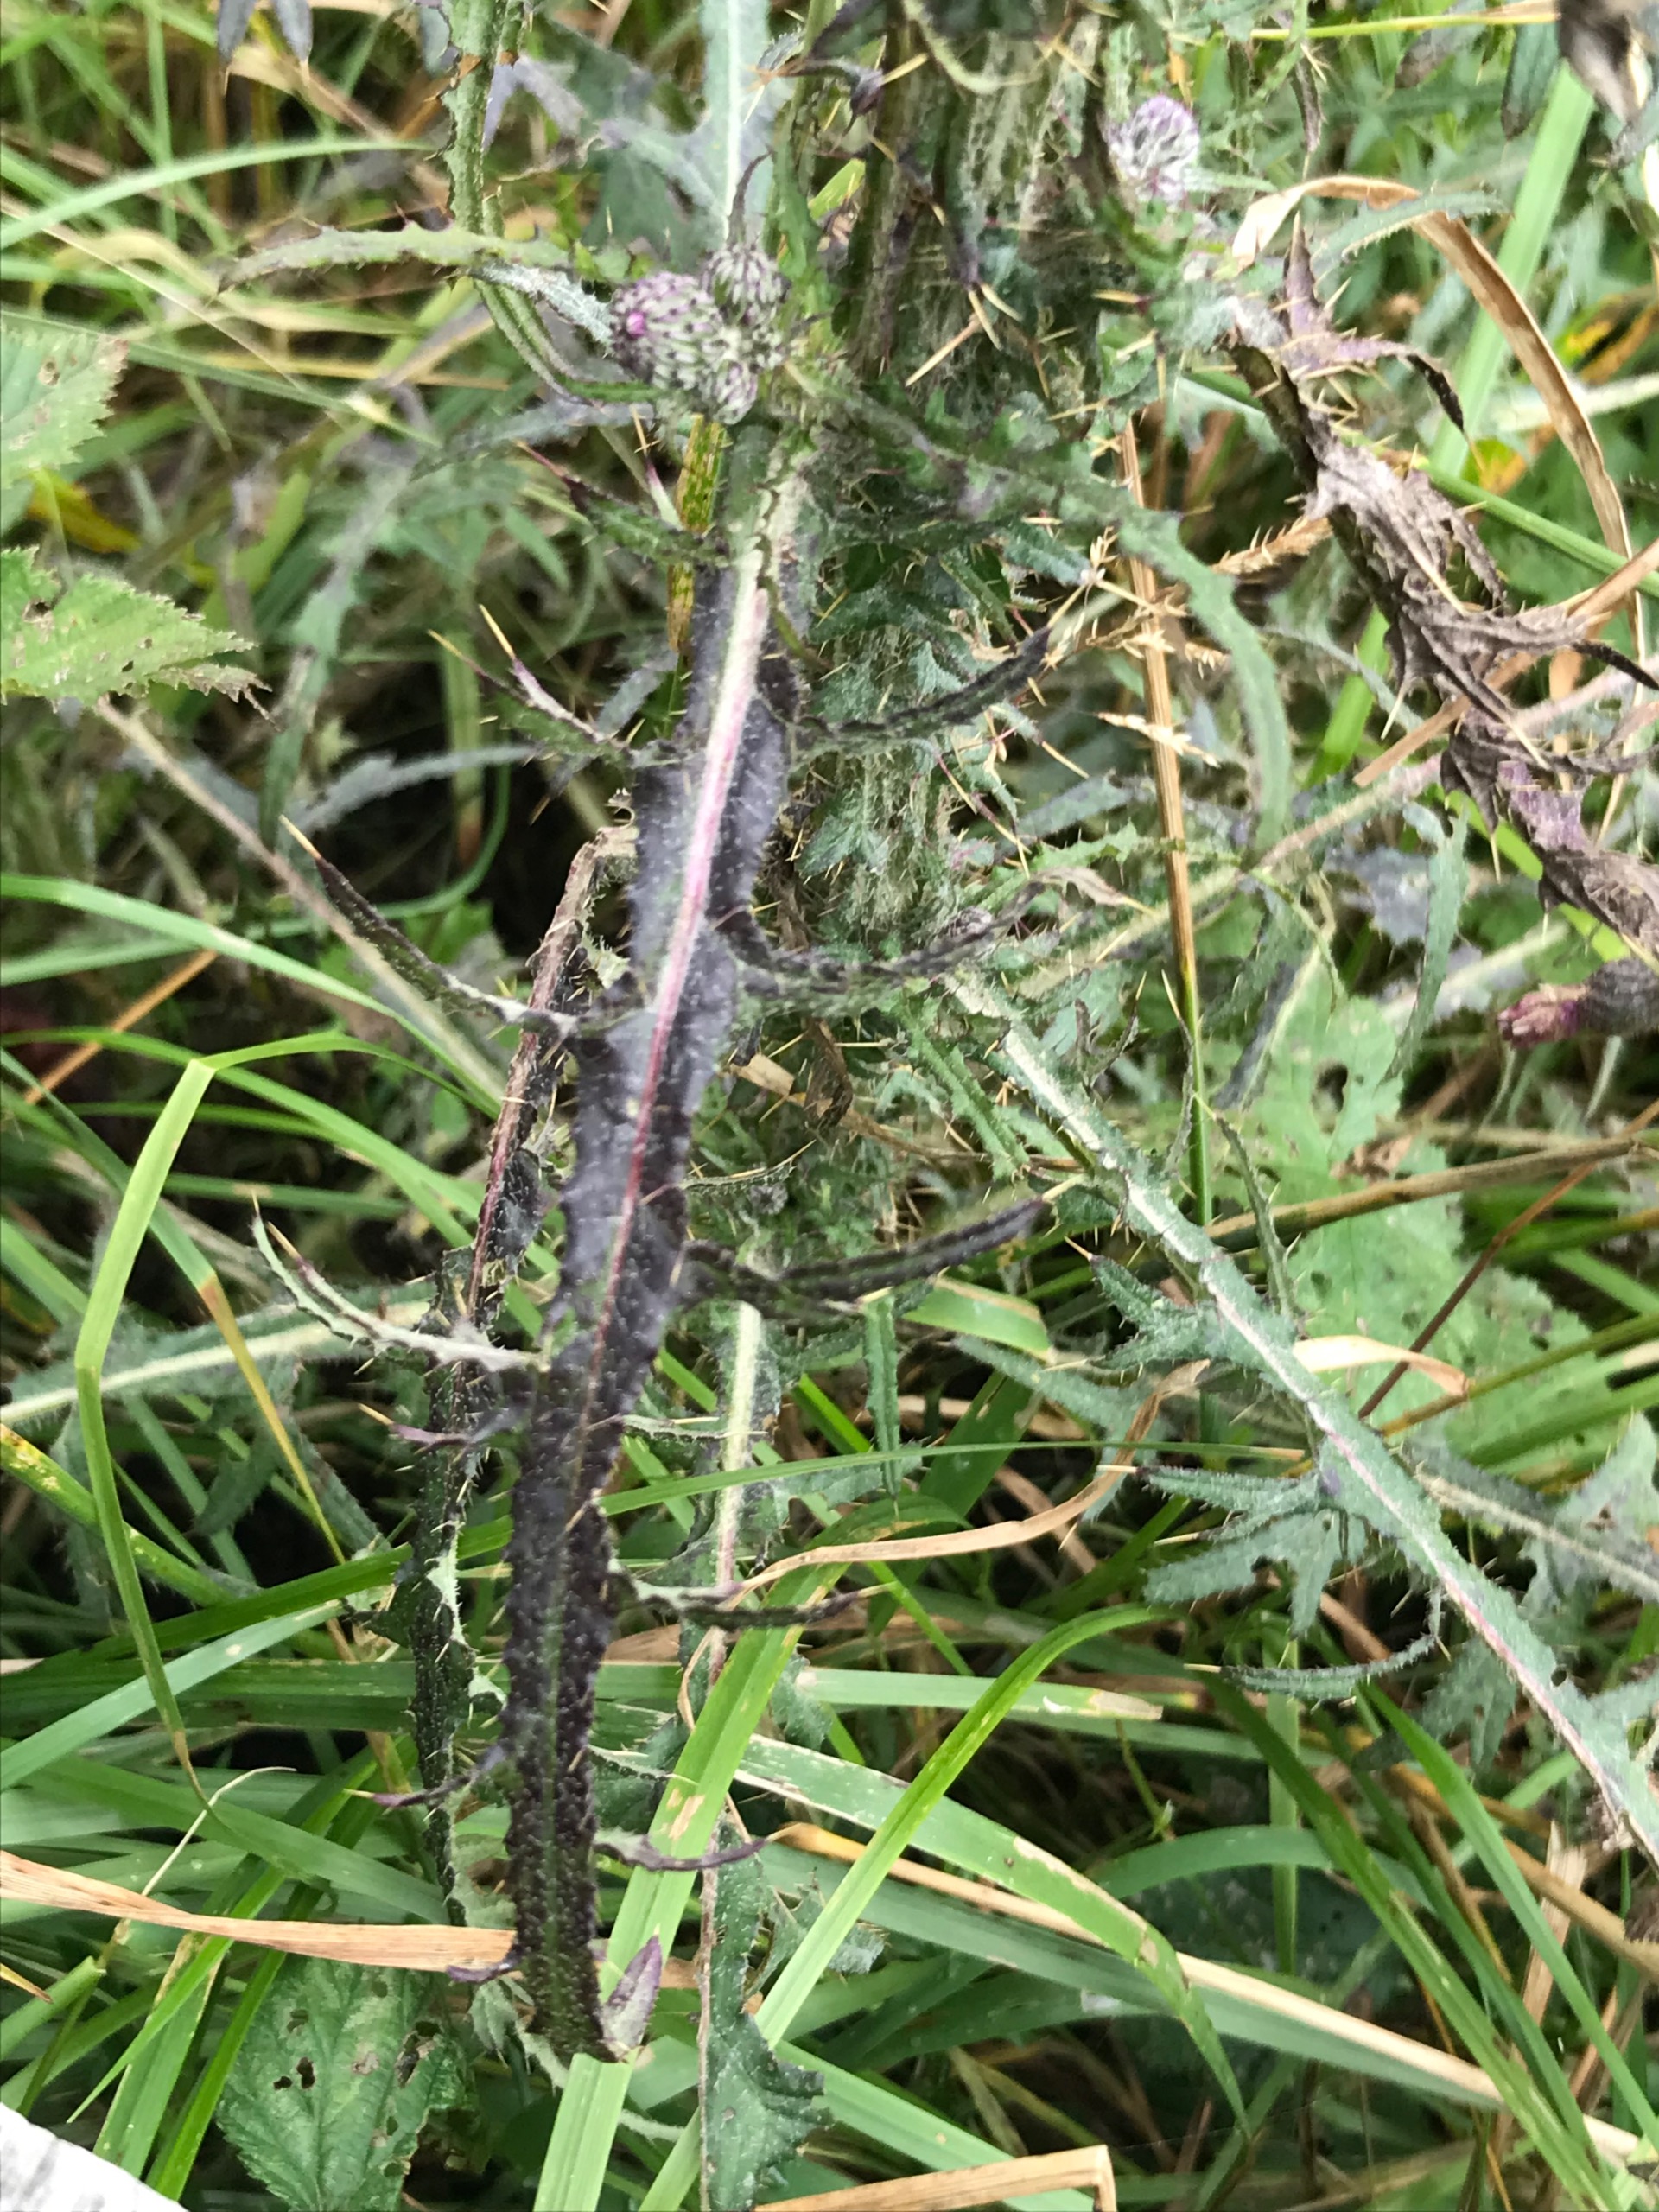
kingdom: Plantae
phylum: Tracheophyta
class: Magnoliopsida
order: Asterales
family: Asteraceae
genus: Cirsium
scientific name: Cirsium palustre
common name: Kær-tidsel
